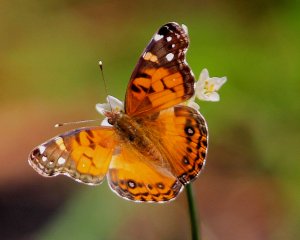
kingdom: Animalia
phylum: Arthropoda
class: Insecta
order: Lepidoptera
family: Nymphalidae
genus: Vanessa
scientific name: Vanessa virginiensis
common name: American Lady
